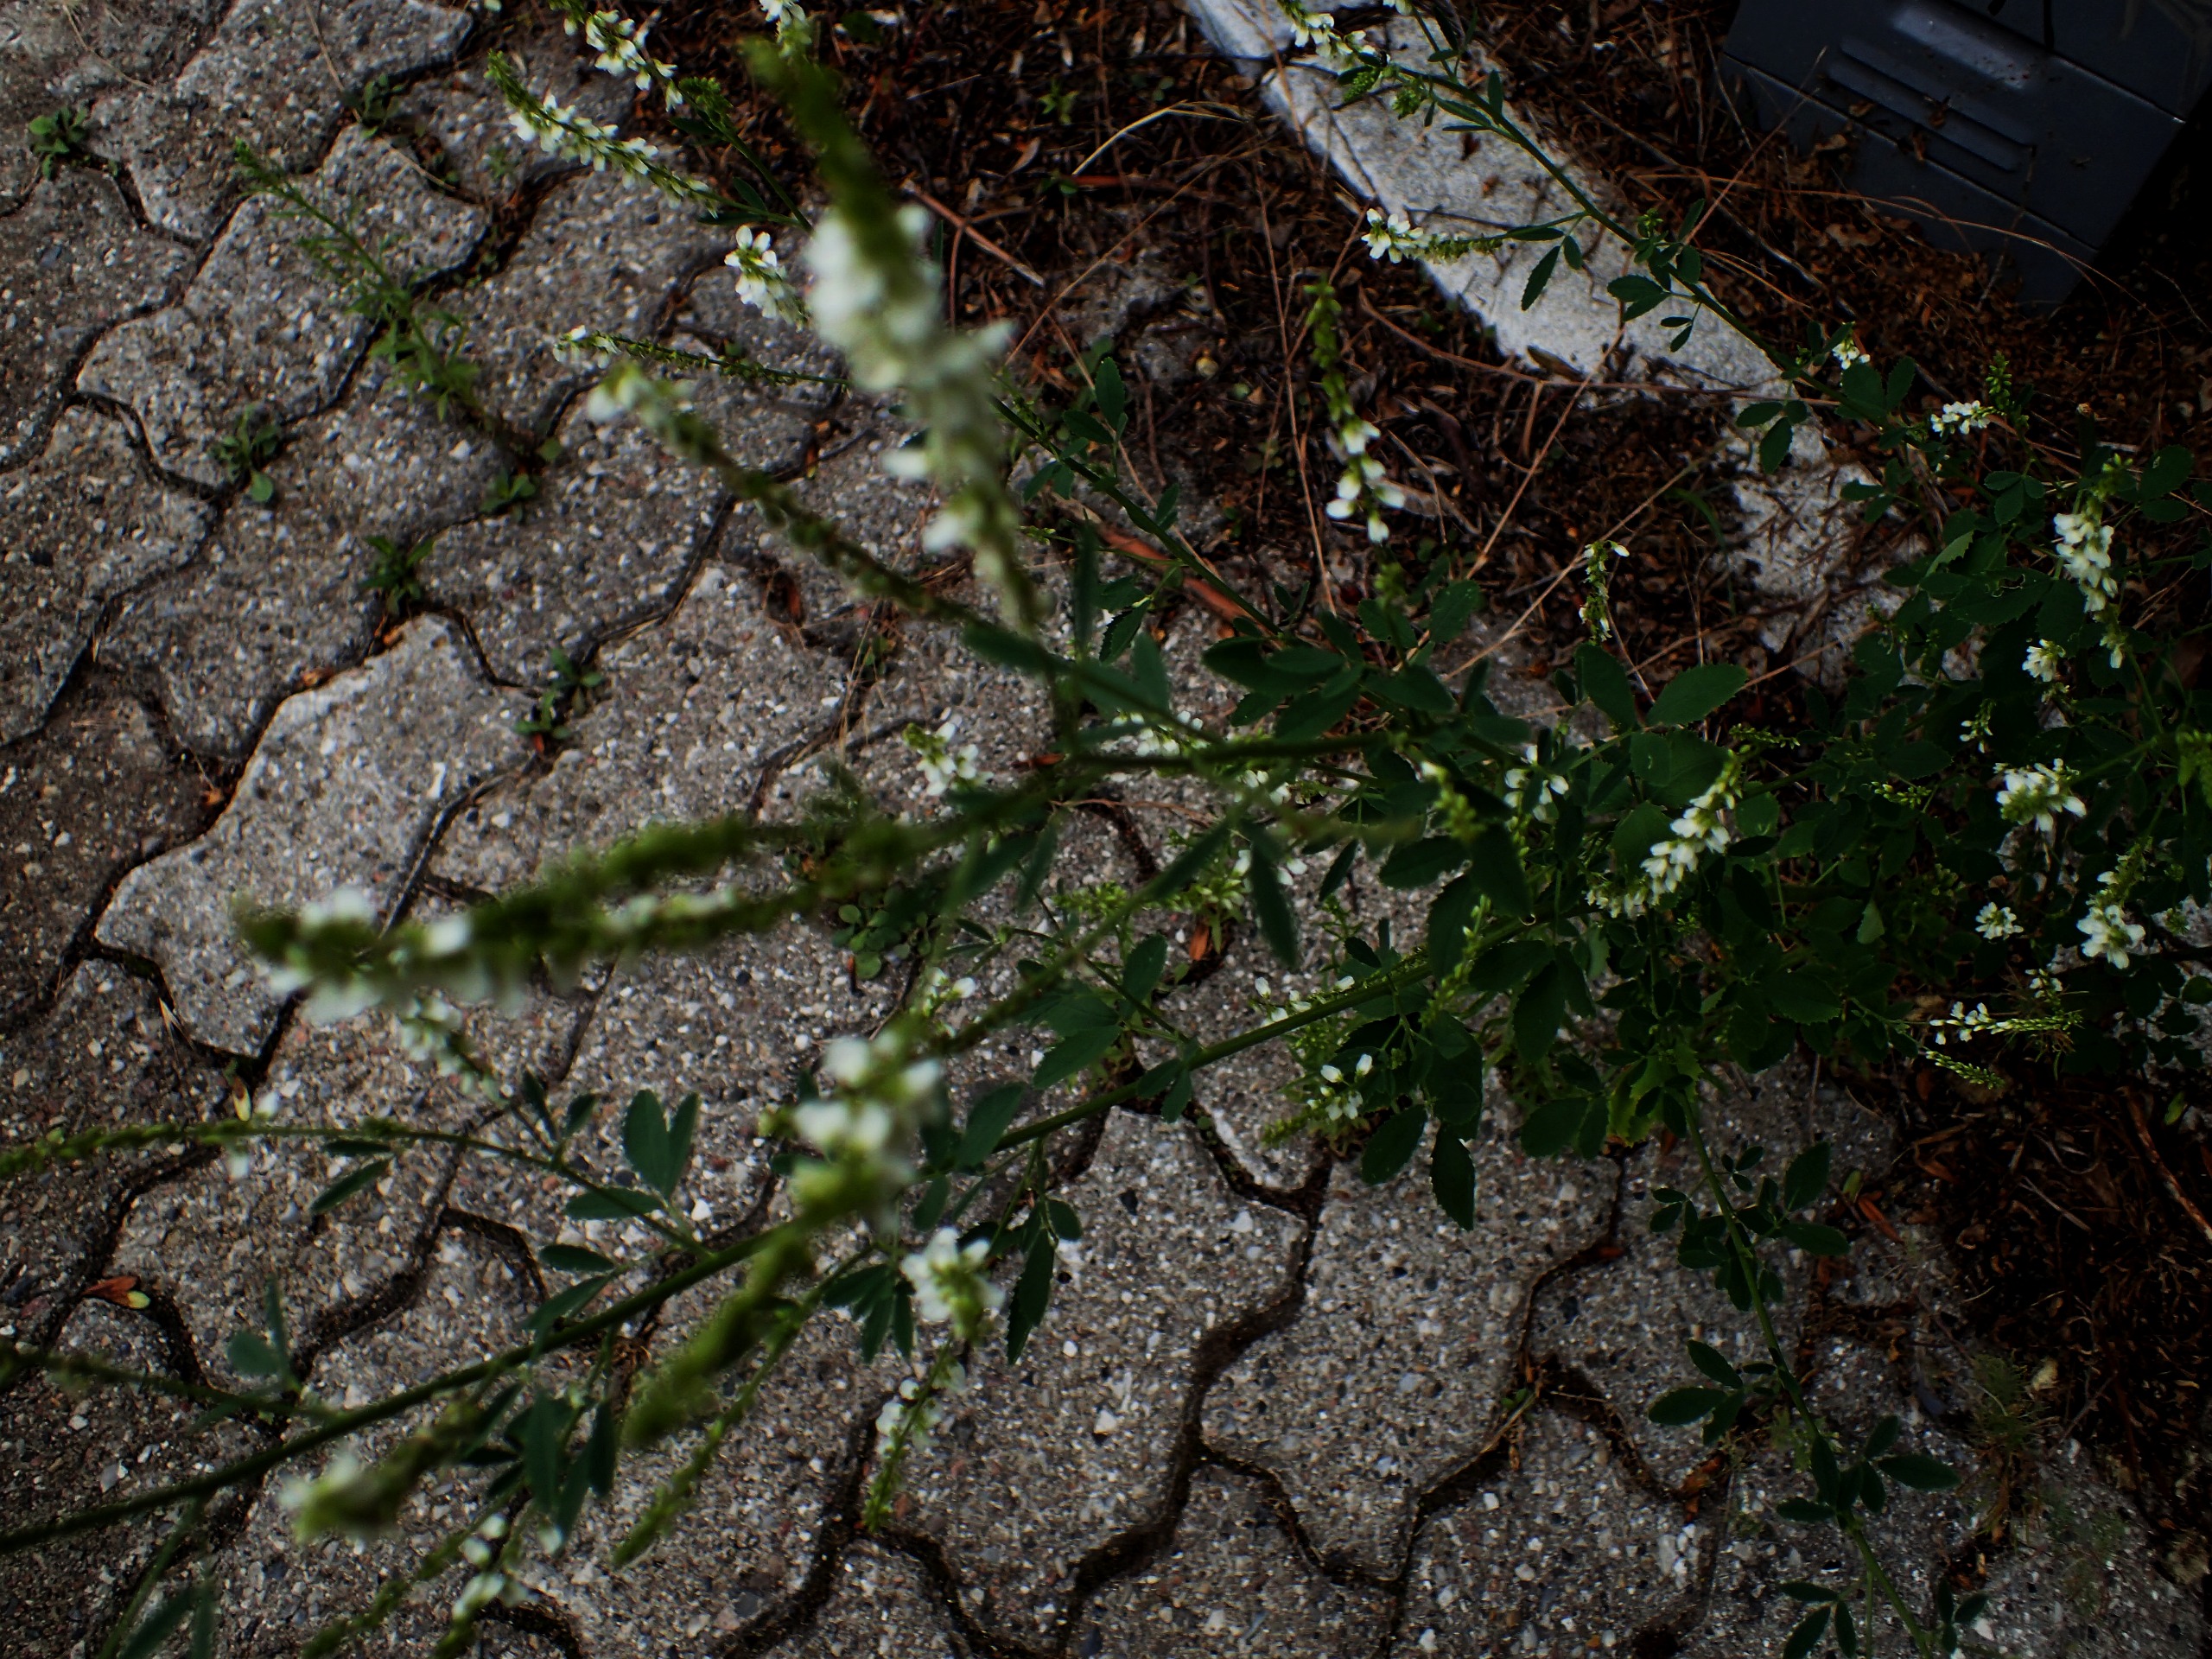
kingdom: Plantae
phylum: Tracheophyta
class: Magnoliopsida
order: Fabales
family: Fabaceae
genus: Melilotus
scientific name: Melilotus albus
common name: Hvid stenkløver
